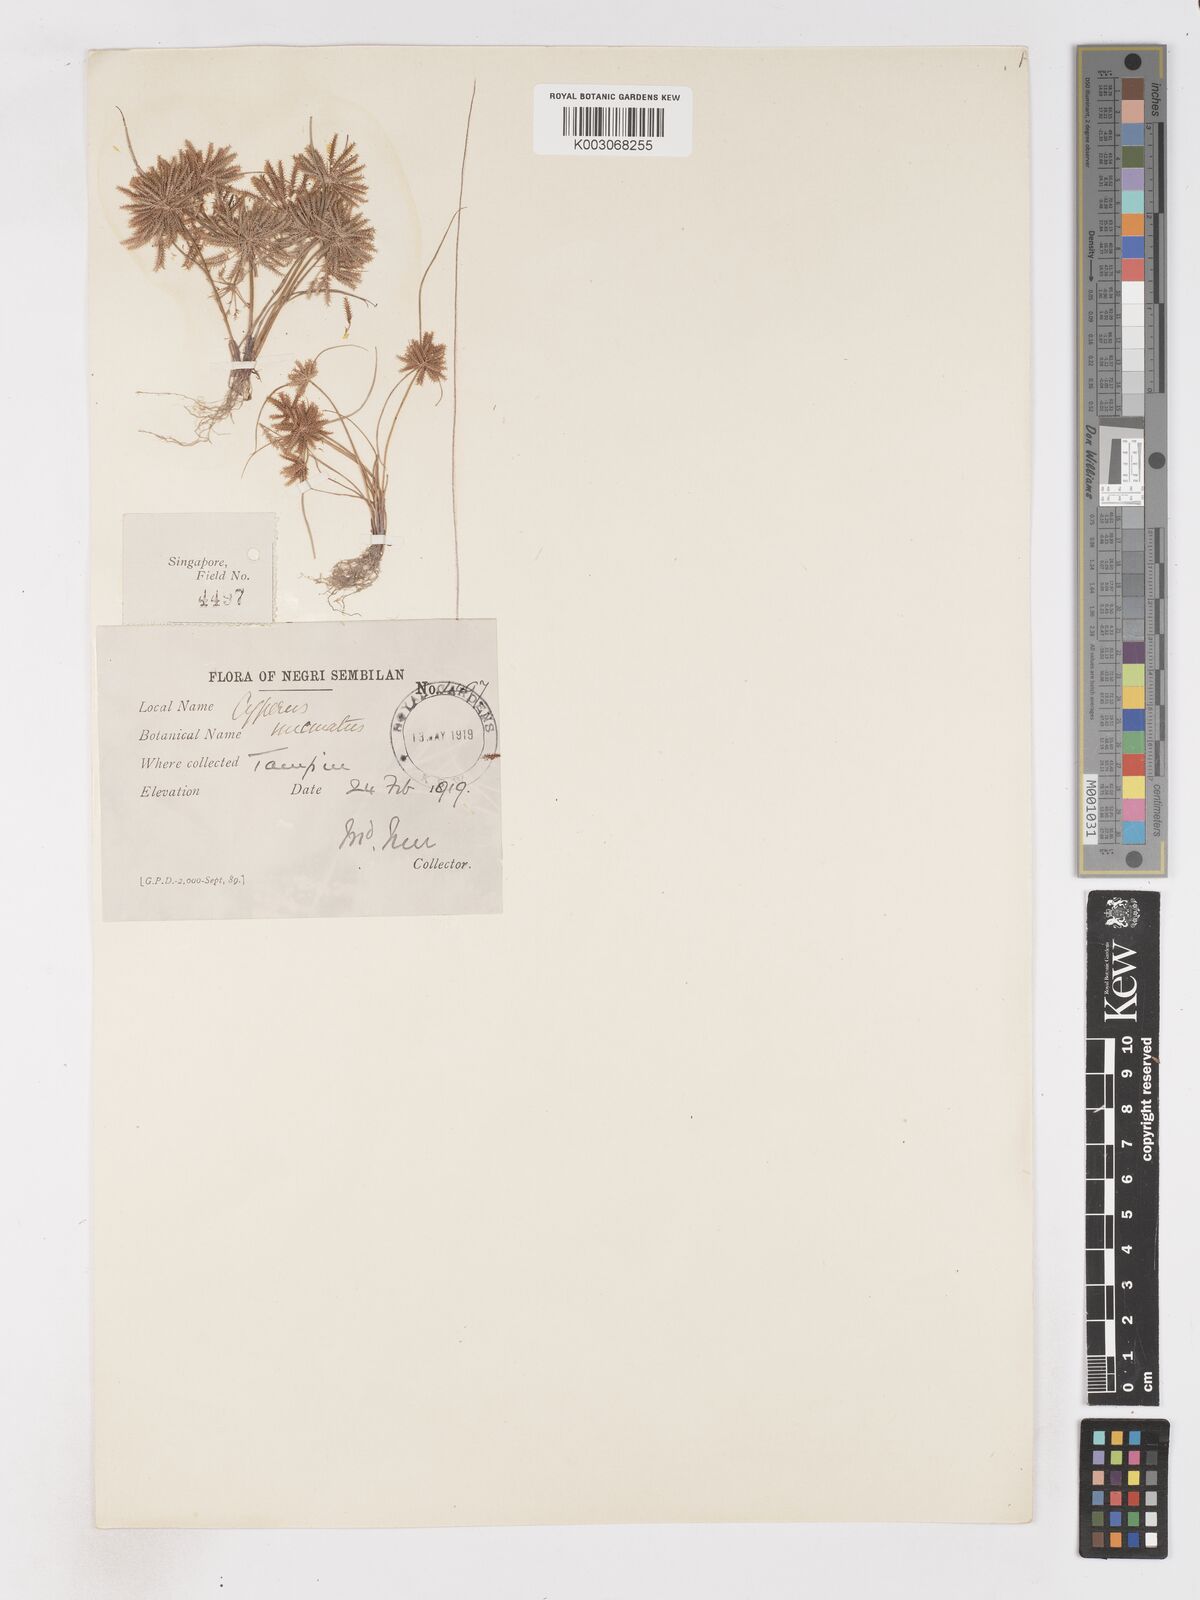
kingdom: Plantae
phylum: Tracheophyta
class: Liliopsida
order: Poales
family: Cyperaceae
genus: Cyperus
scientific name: Cyperus castaneus
